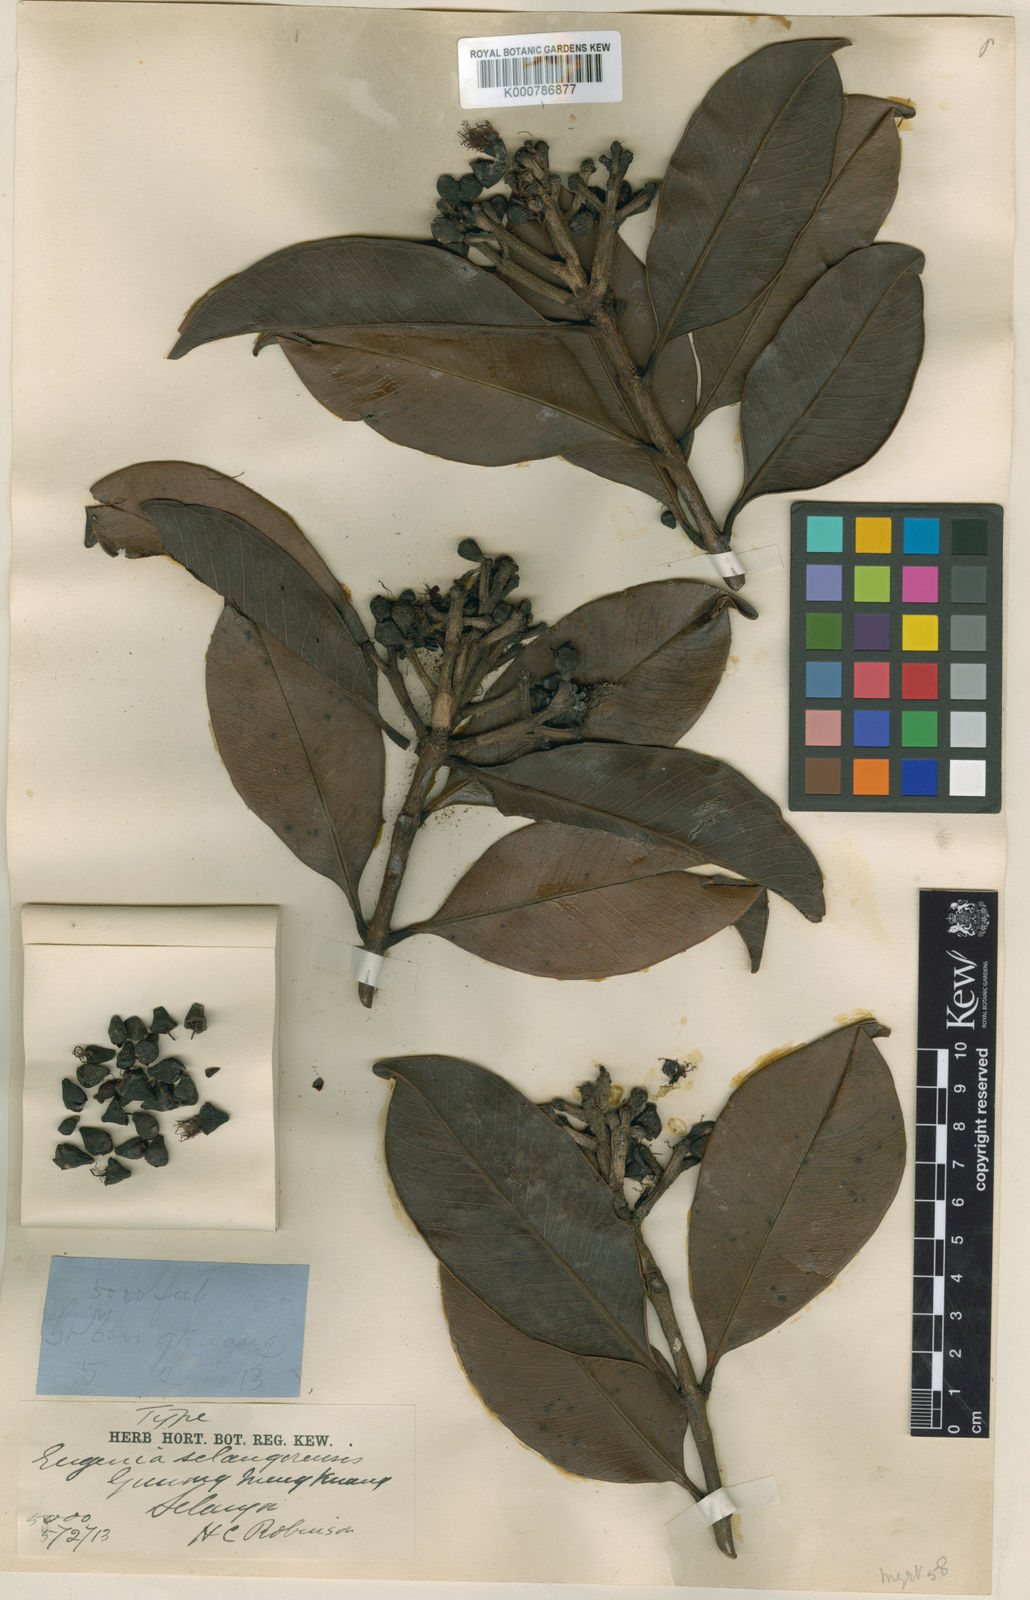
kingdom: Plantae
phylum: Tracheophyta
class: Magnoliopsida
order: Myrtales
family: Myrtaceae
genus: Syzygium
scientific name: Syzygium
